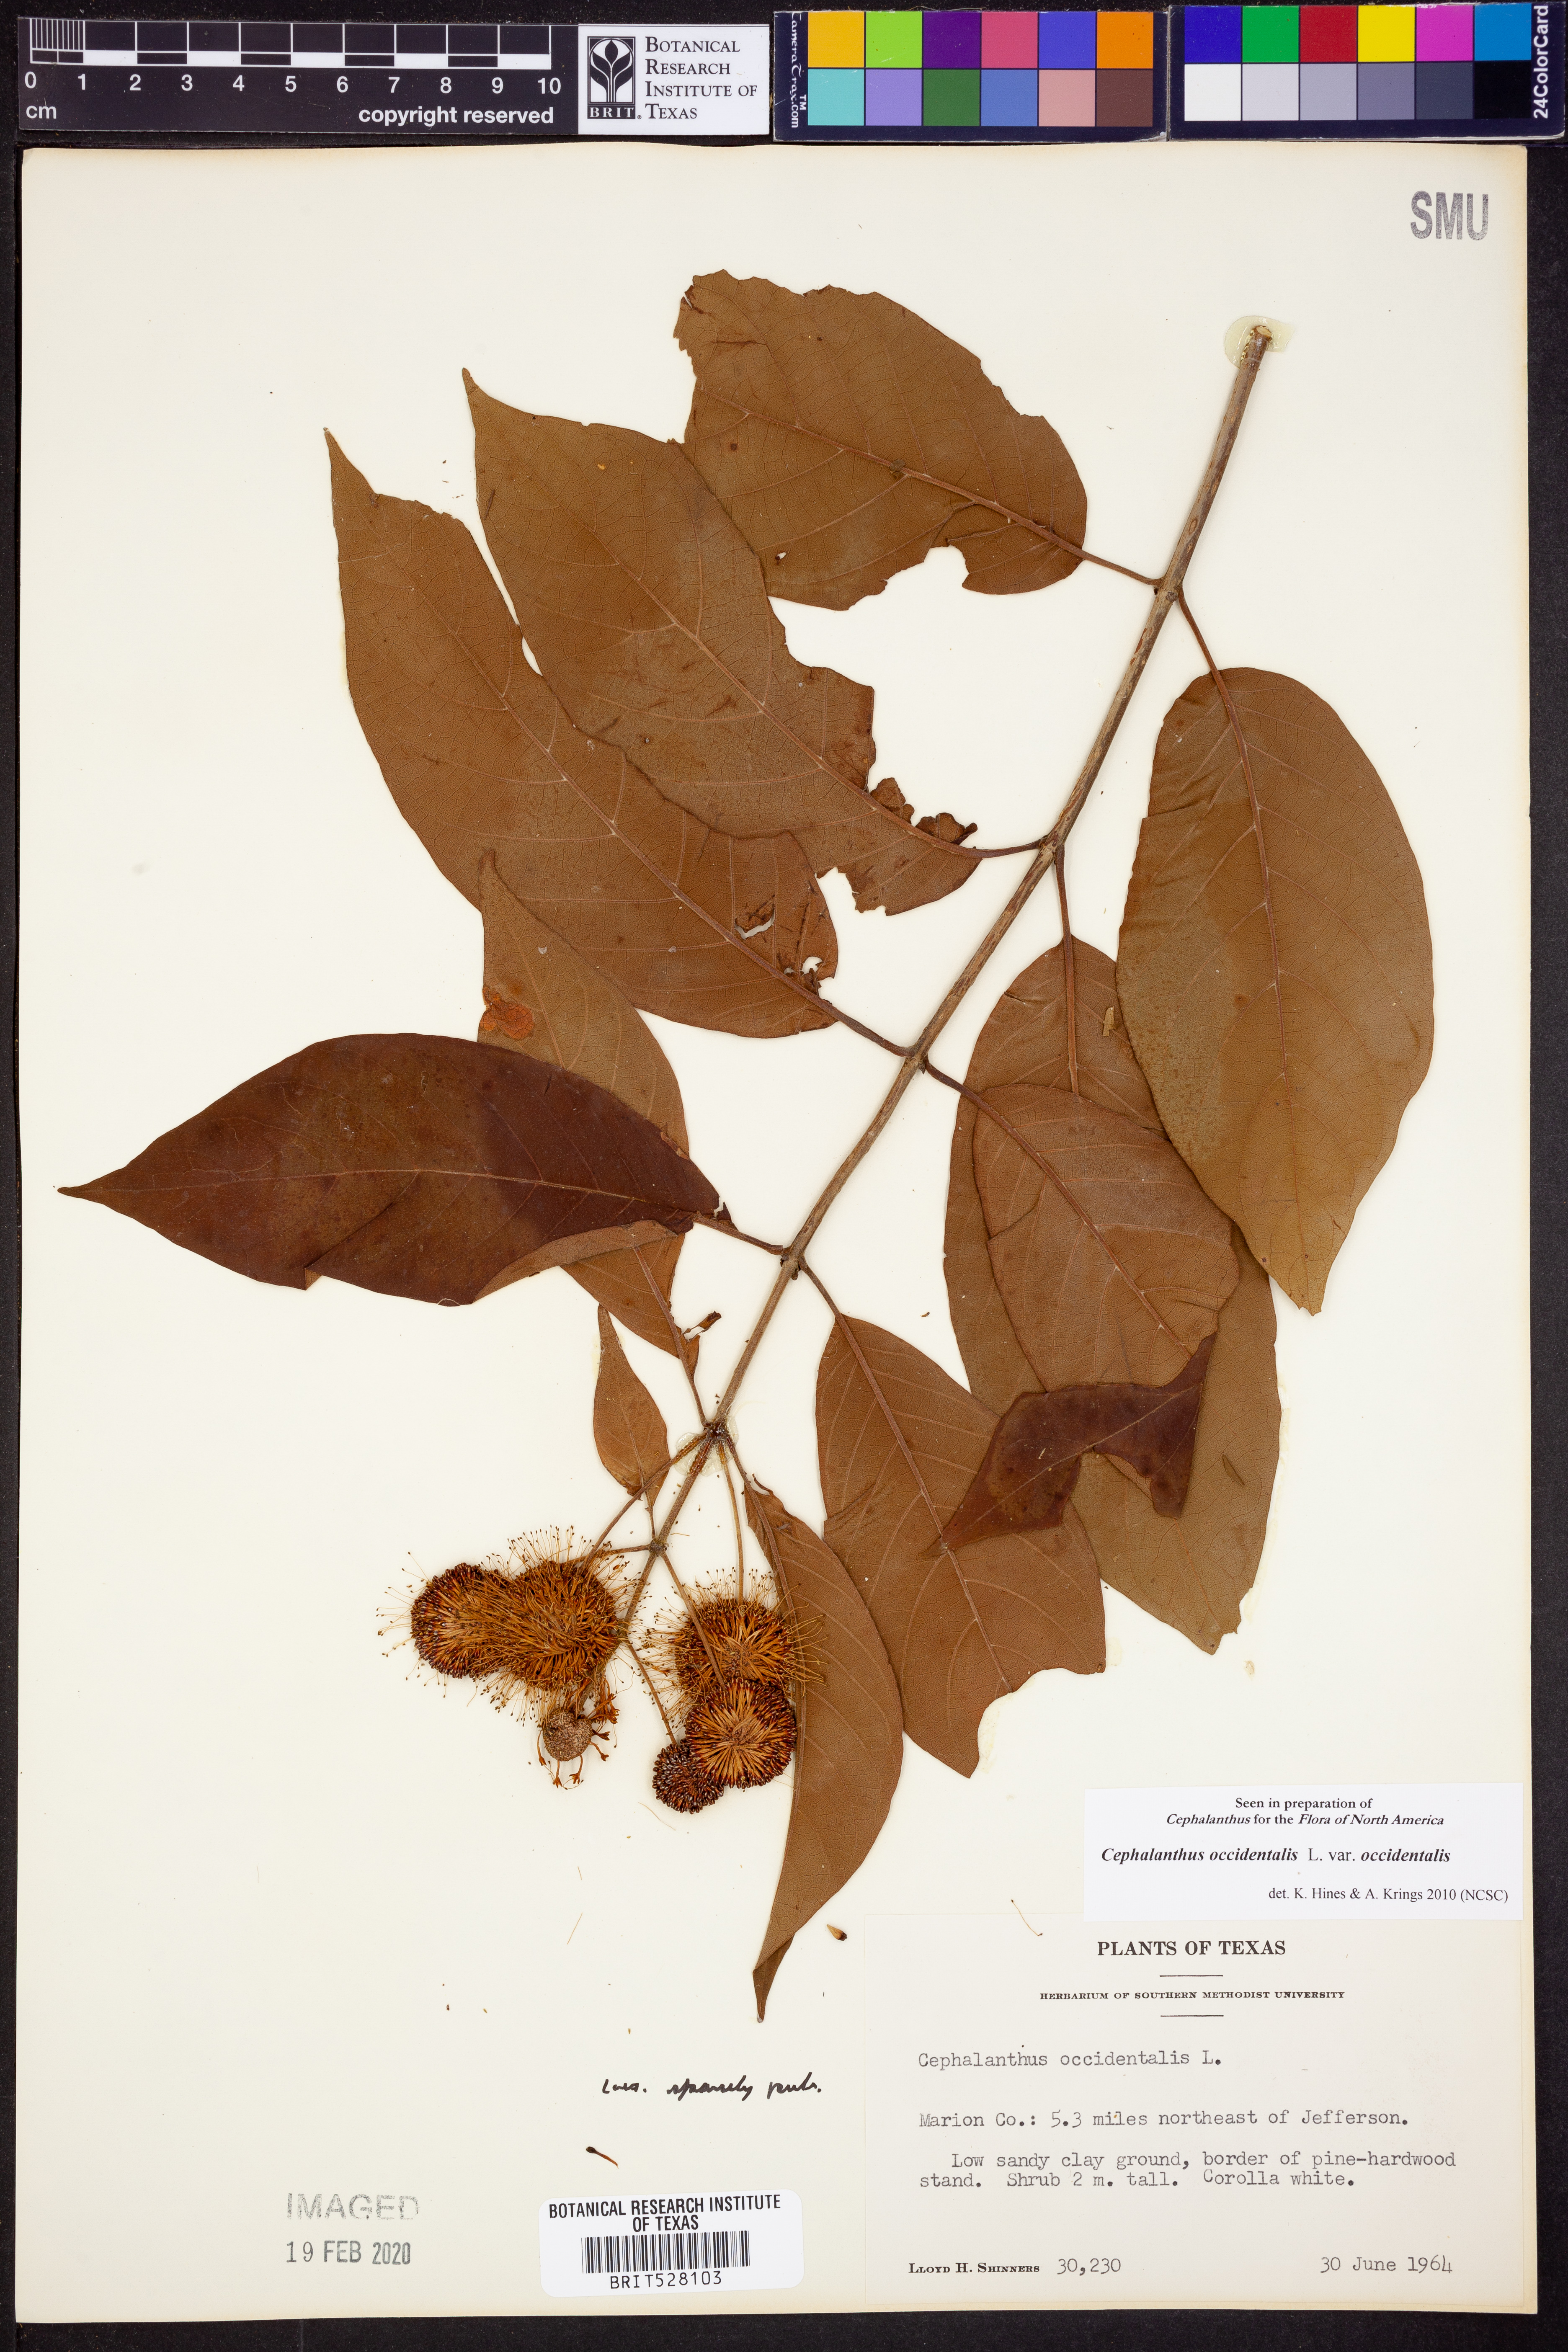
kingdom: Plantae
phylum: Tracheophyta
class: Magnoliopsida
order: Gentianales
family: Rubiaceae
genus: Cephalanthus
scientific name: Cephalanthus occidentalis
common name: Button-willow
